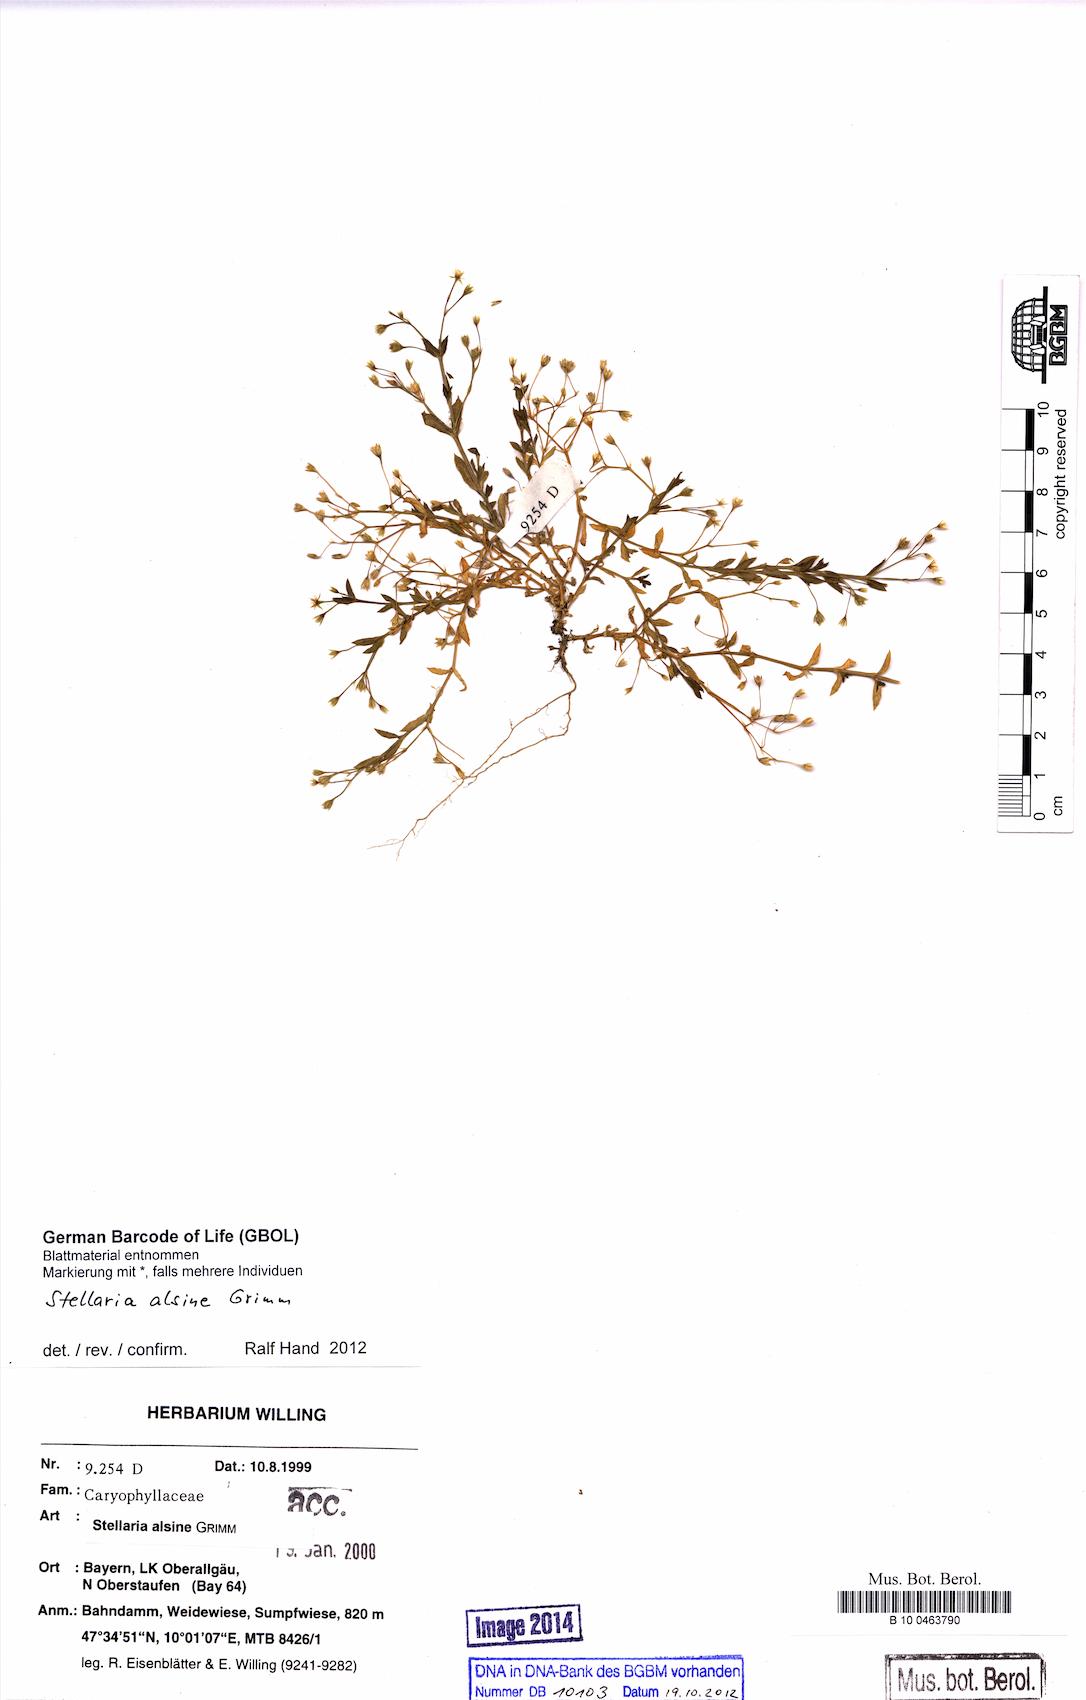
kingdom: Plantae
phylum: Tracheophyta
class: Magnoliopsida
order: Caryophyllales
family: Caryophyllaceae
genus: Stellaria
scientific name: Stellaria alsine
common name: Bog stitchwort
